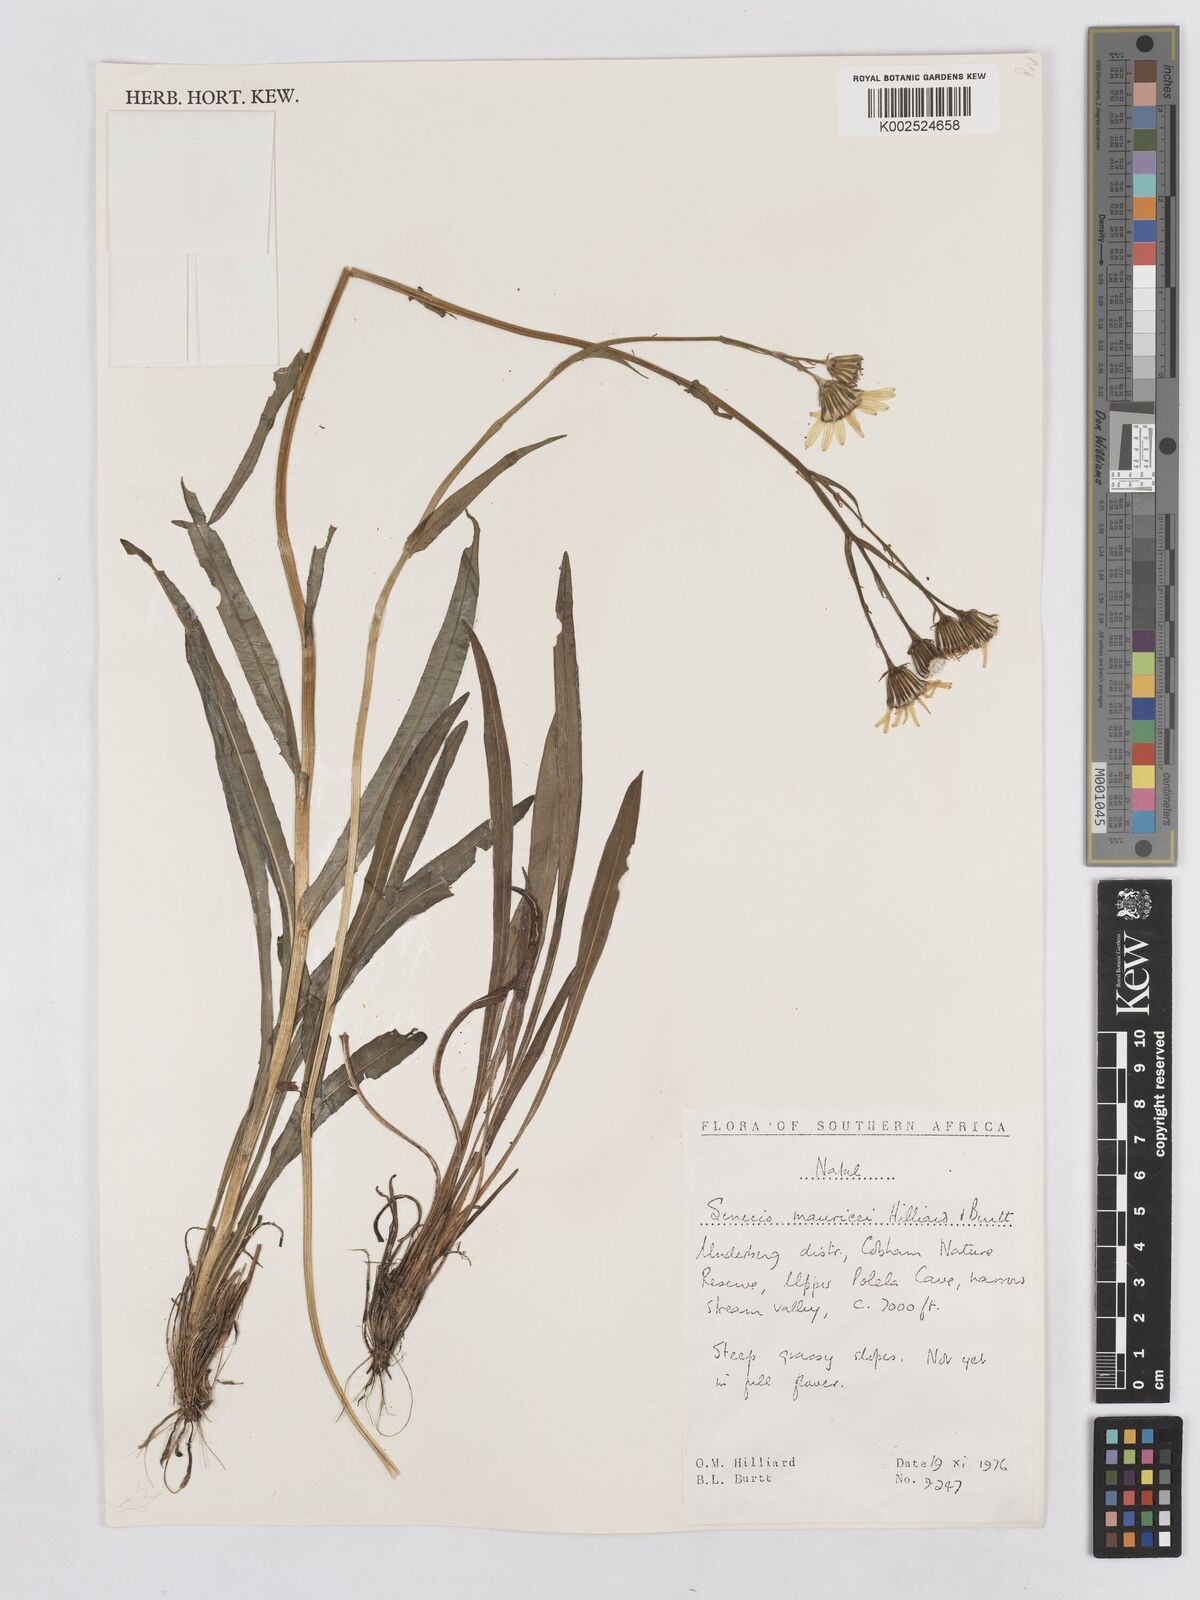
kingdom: Plantae
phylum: Tracheophyta
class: Magnoliopsida
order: Asterales
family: Asteraceae
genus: Senecio
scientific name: Senecio mauricei
